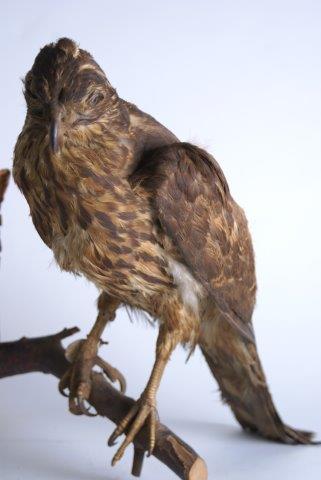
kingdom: Animalia
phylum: Chordata
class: Aves
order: Accipitriformes
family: Accipitridae
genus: Accipiter
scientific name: Accipiter gentilis
